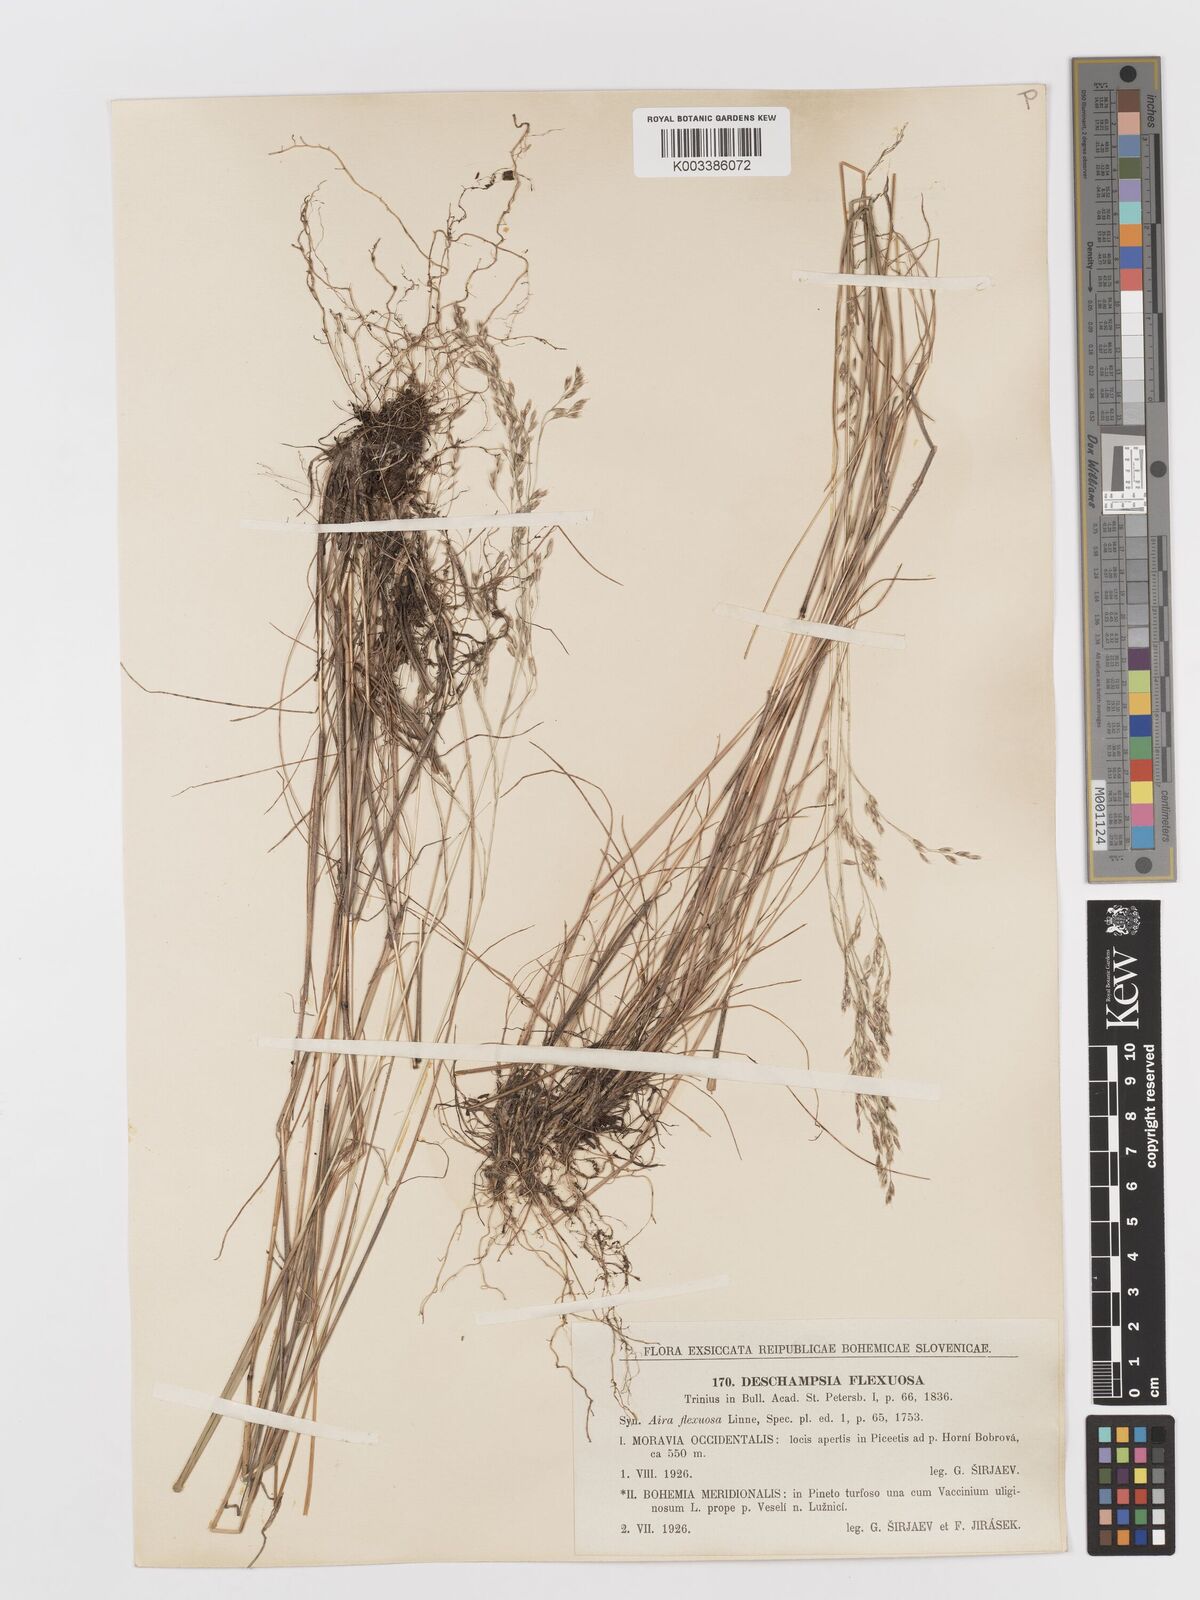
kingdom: Plantae
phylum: Tracheophyta
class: Liliopsida
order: Poales
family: Poaceae
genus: Avenella
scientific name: Avenella flexuosa
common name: Wavy hairgrass
